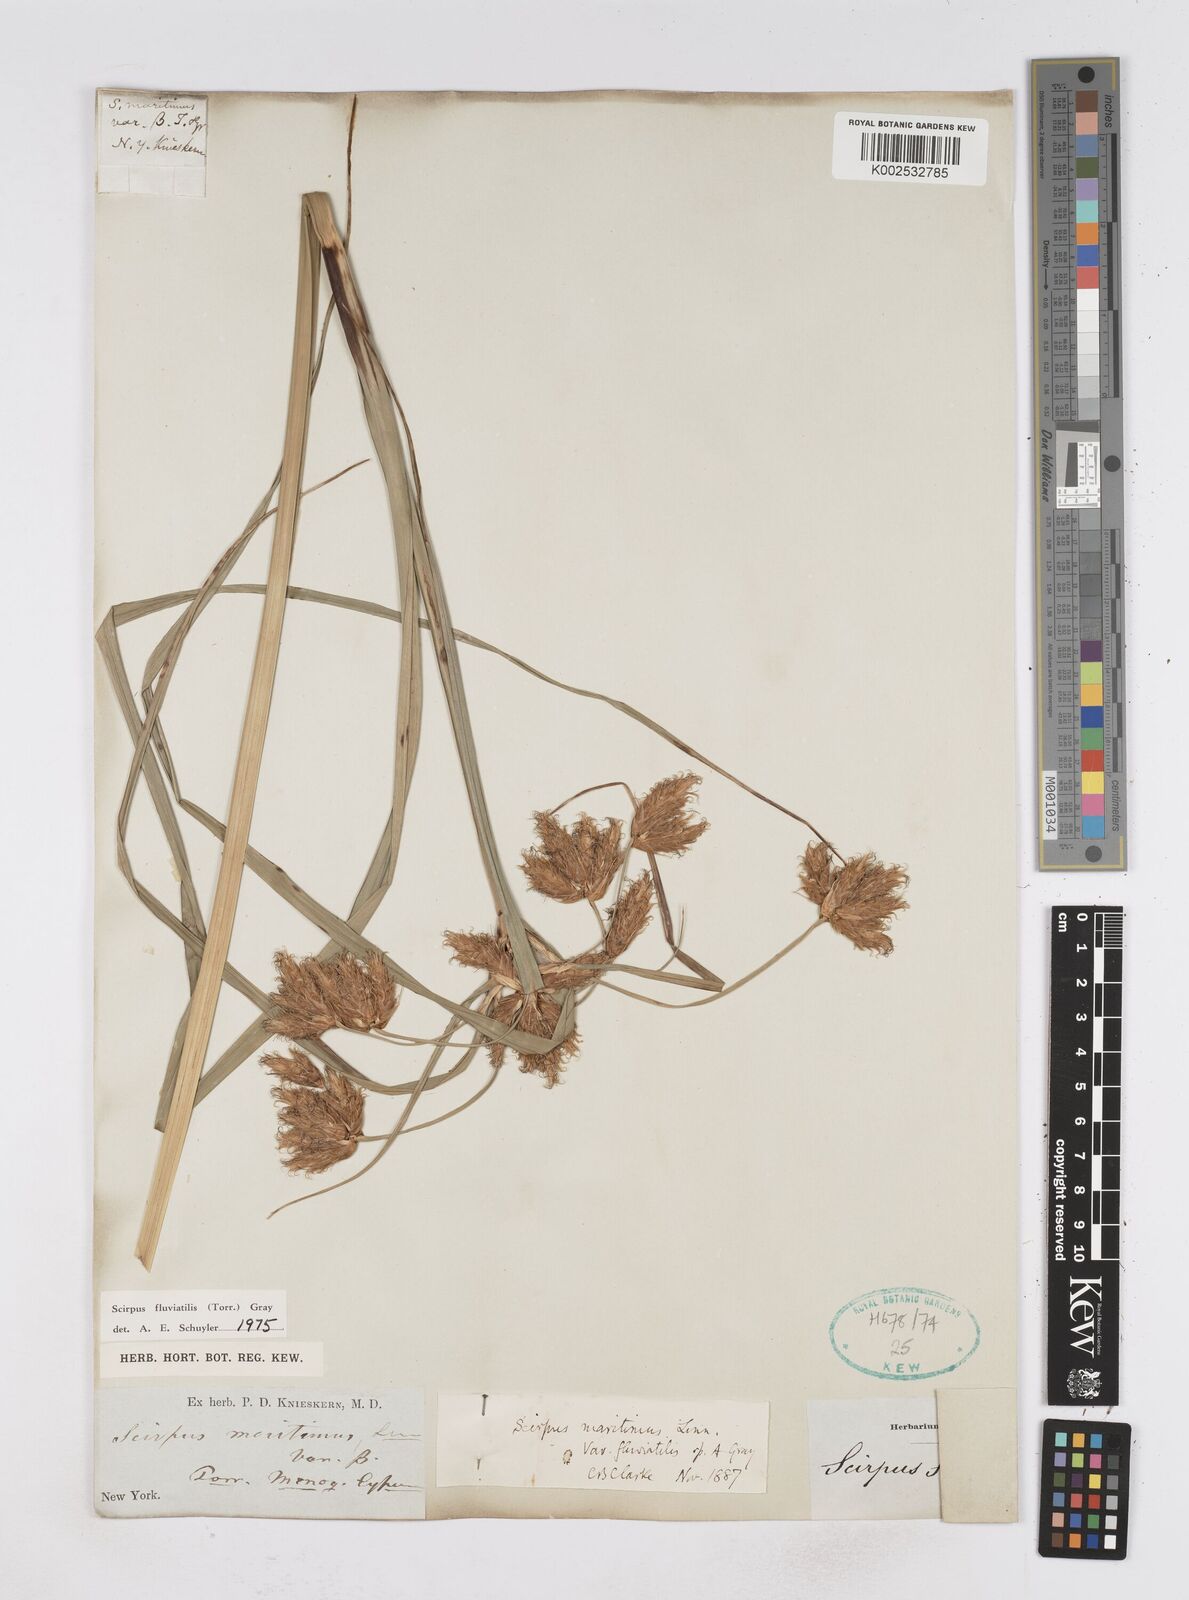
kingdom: Plantae
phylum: Tracheophyta
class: Liliopsida
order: Poales
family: Cyperaceae
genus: Bolboschoenus
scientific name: Bolboschoenus
